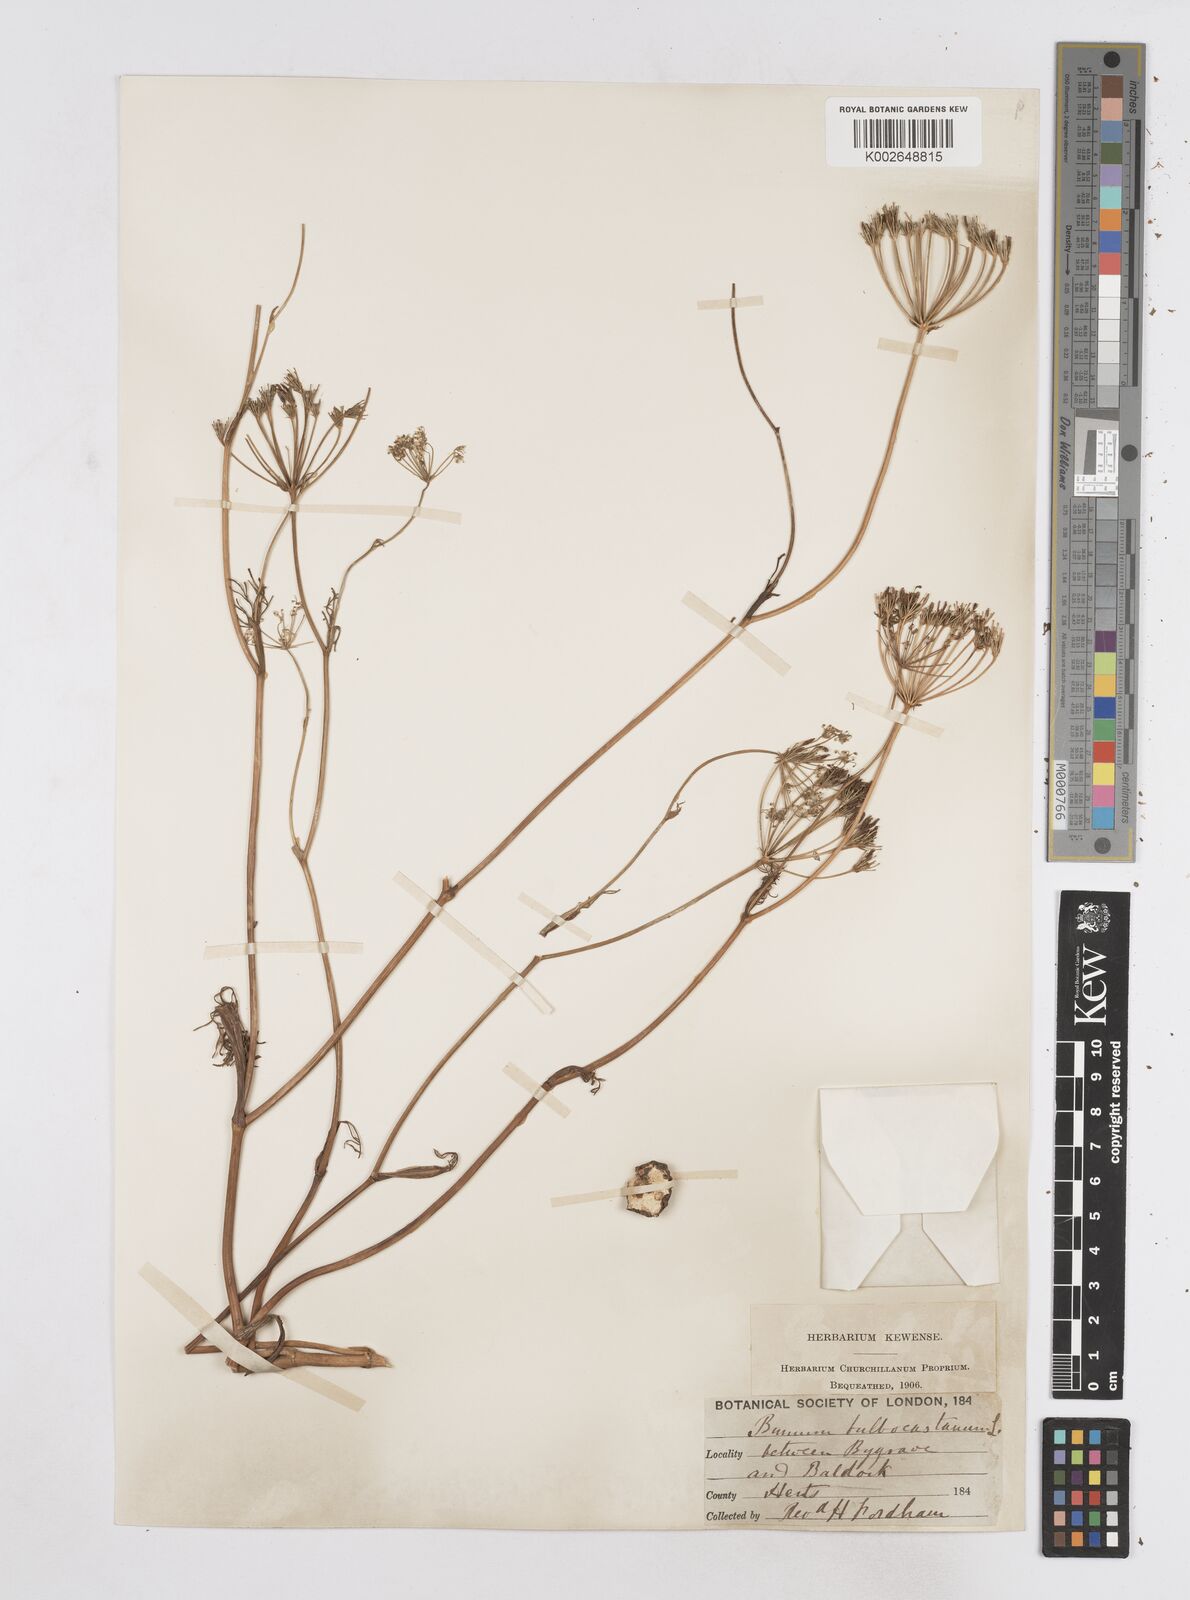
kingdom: Plantae
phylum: Tracheophyta
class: Magnoliopsida
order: Apiales
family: Apiaceae
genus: Bunium
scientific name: Bunium bulbocastanum
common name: Great pignut
